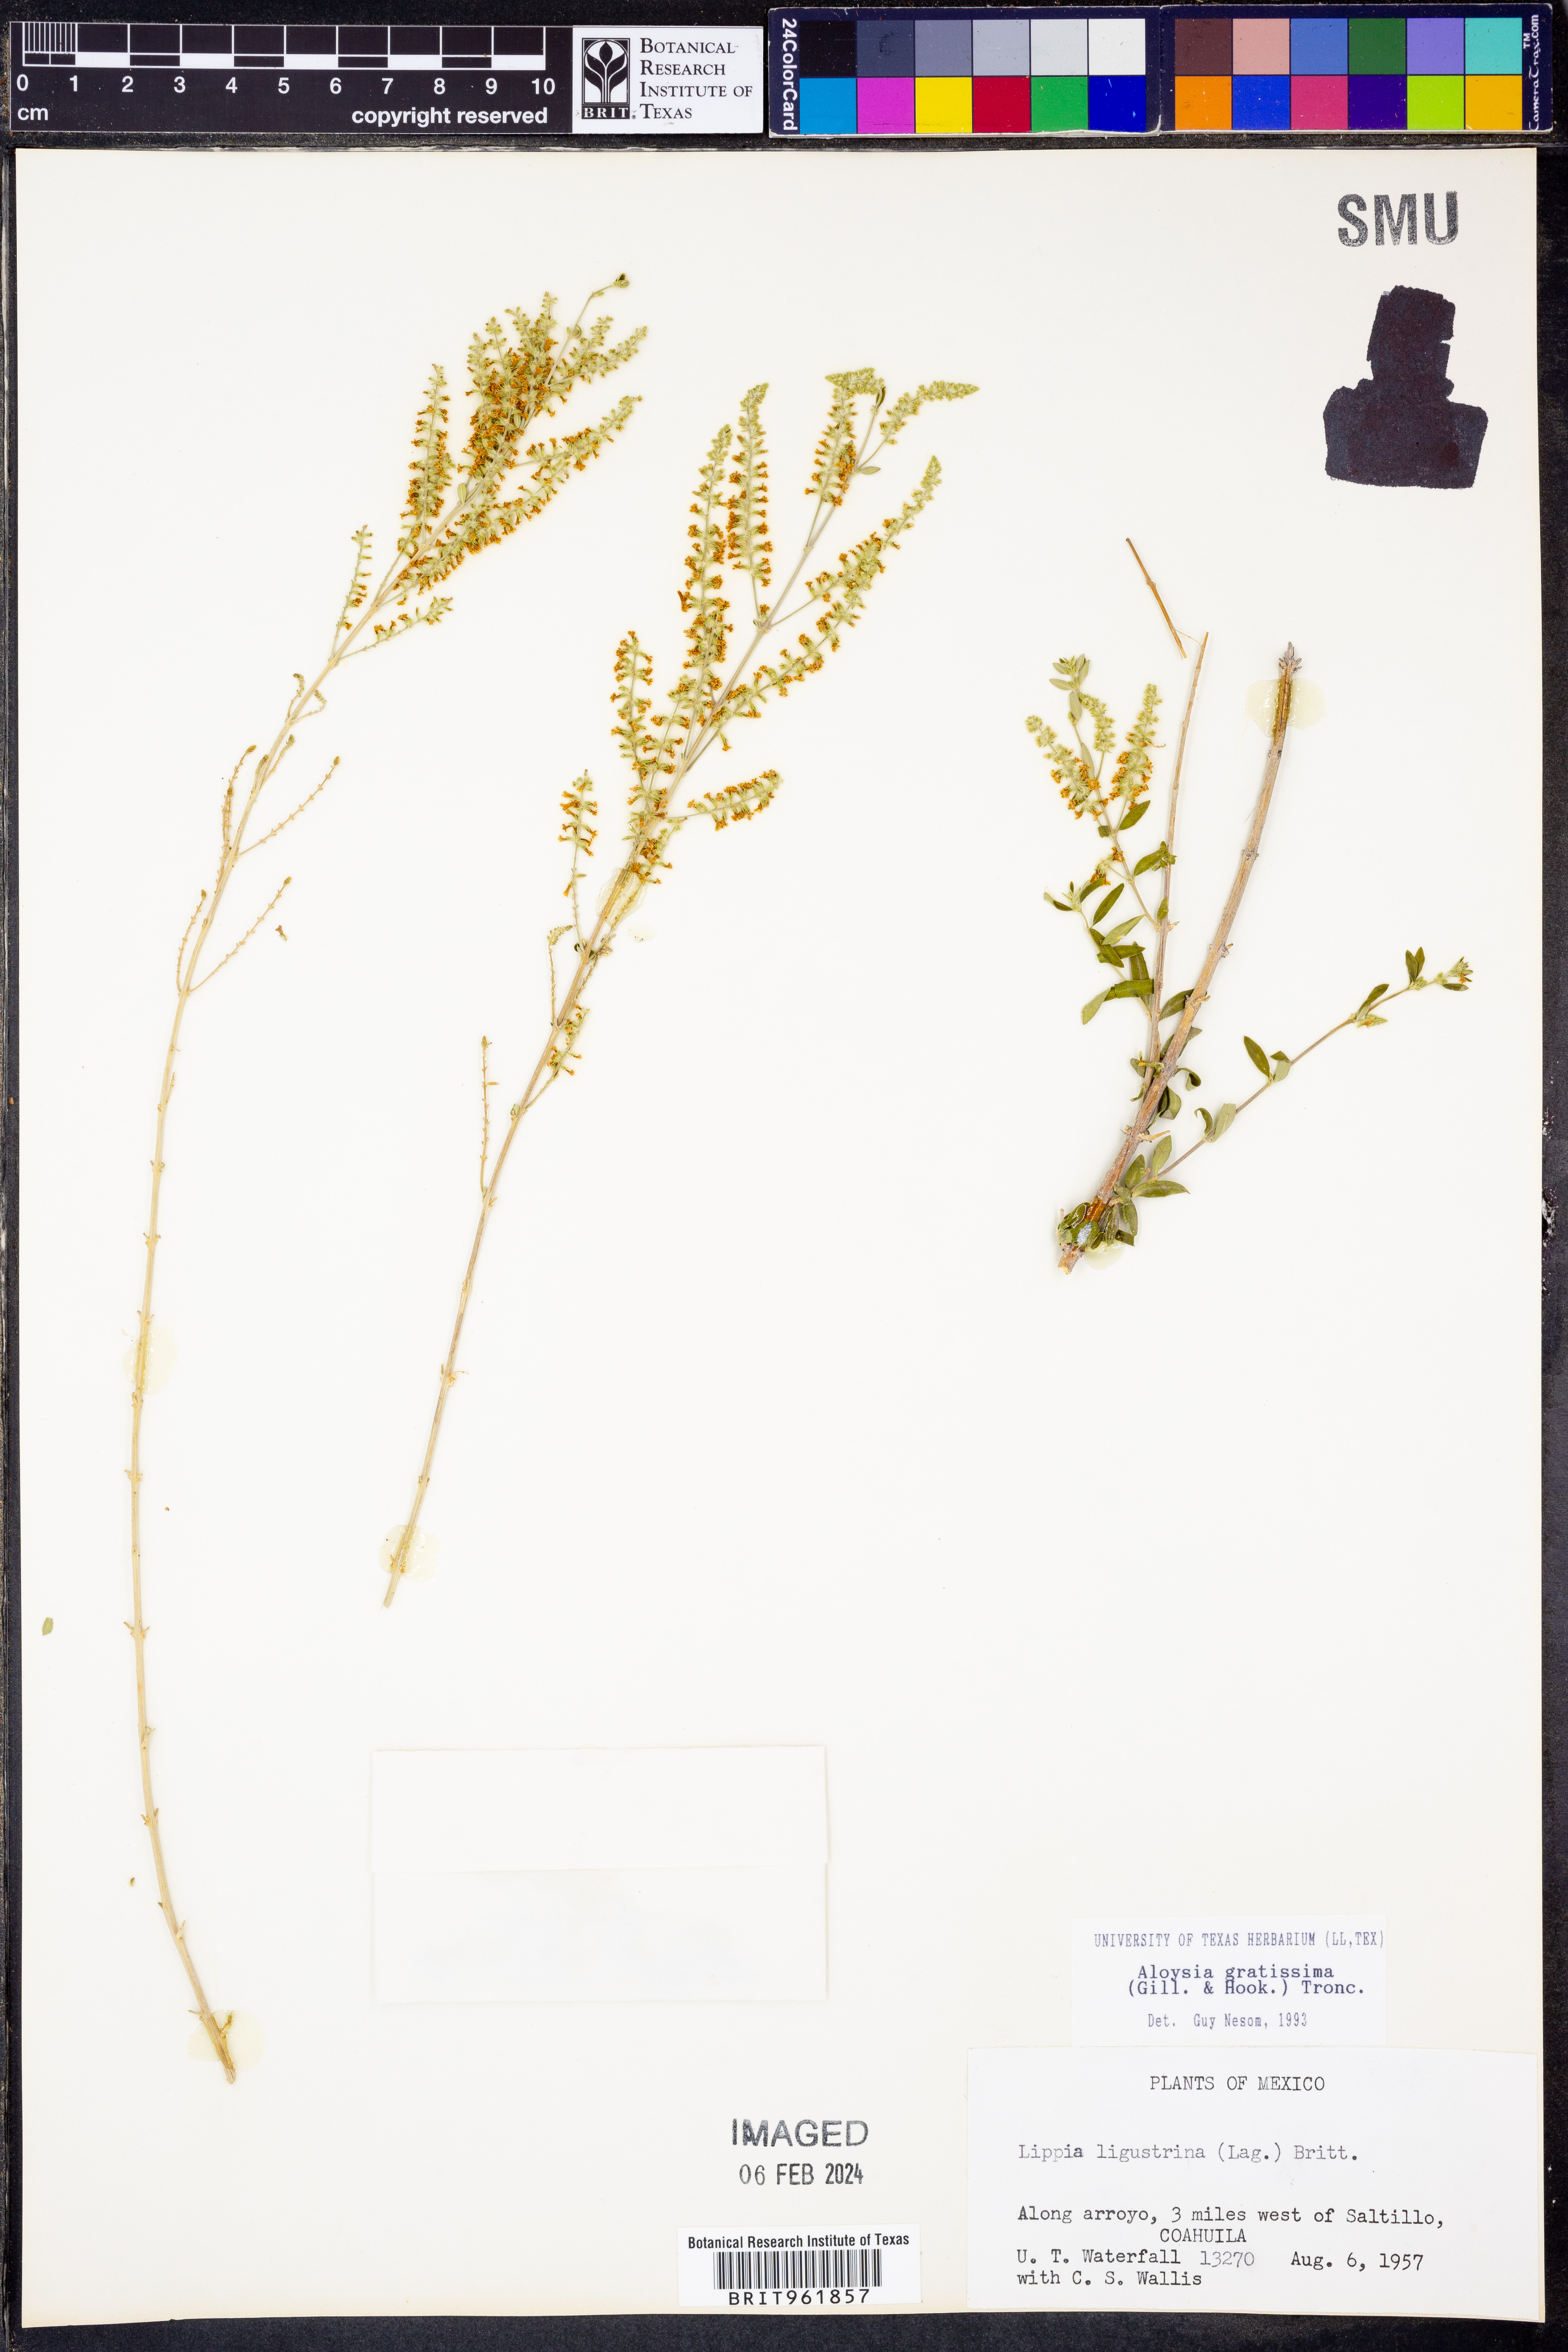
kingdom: Plantae
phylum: Tracheophyta
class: Magnoliopsida
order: Lamiales
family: Verbenaceae
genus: Aloysia
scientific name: Aloysia gratissima
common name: Common bee-brush
